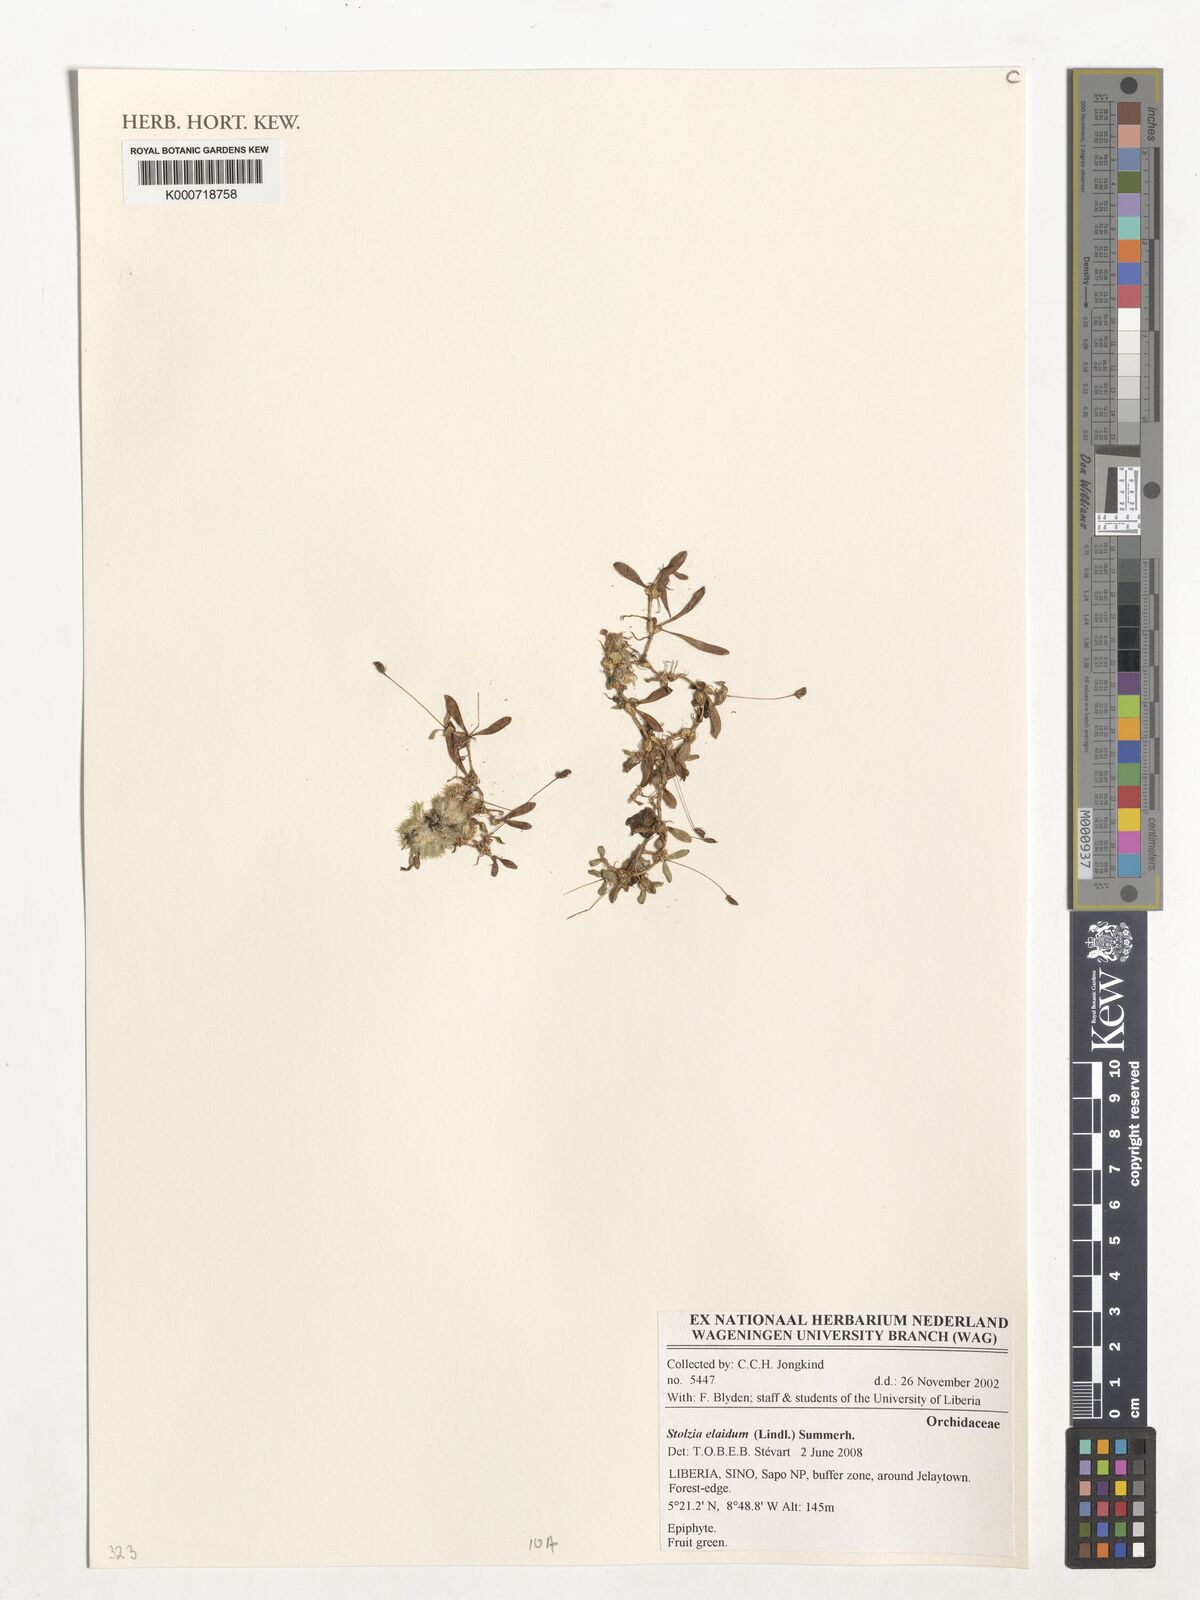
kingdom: Plantae
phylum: Tracheophyta
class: Liliopsida
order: Asparagales
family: Orchidaceae
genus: Porpax
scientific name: Porpax elaidium
